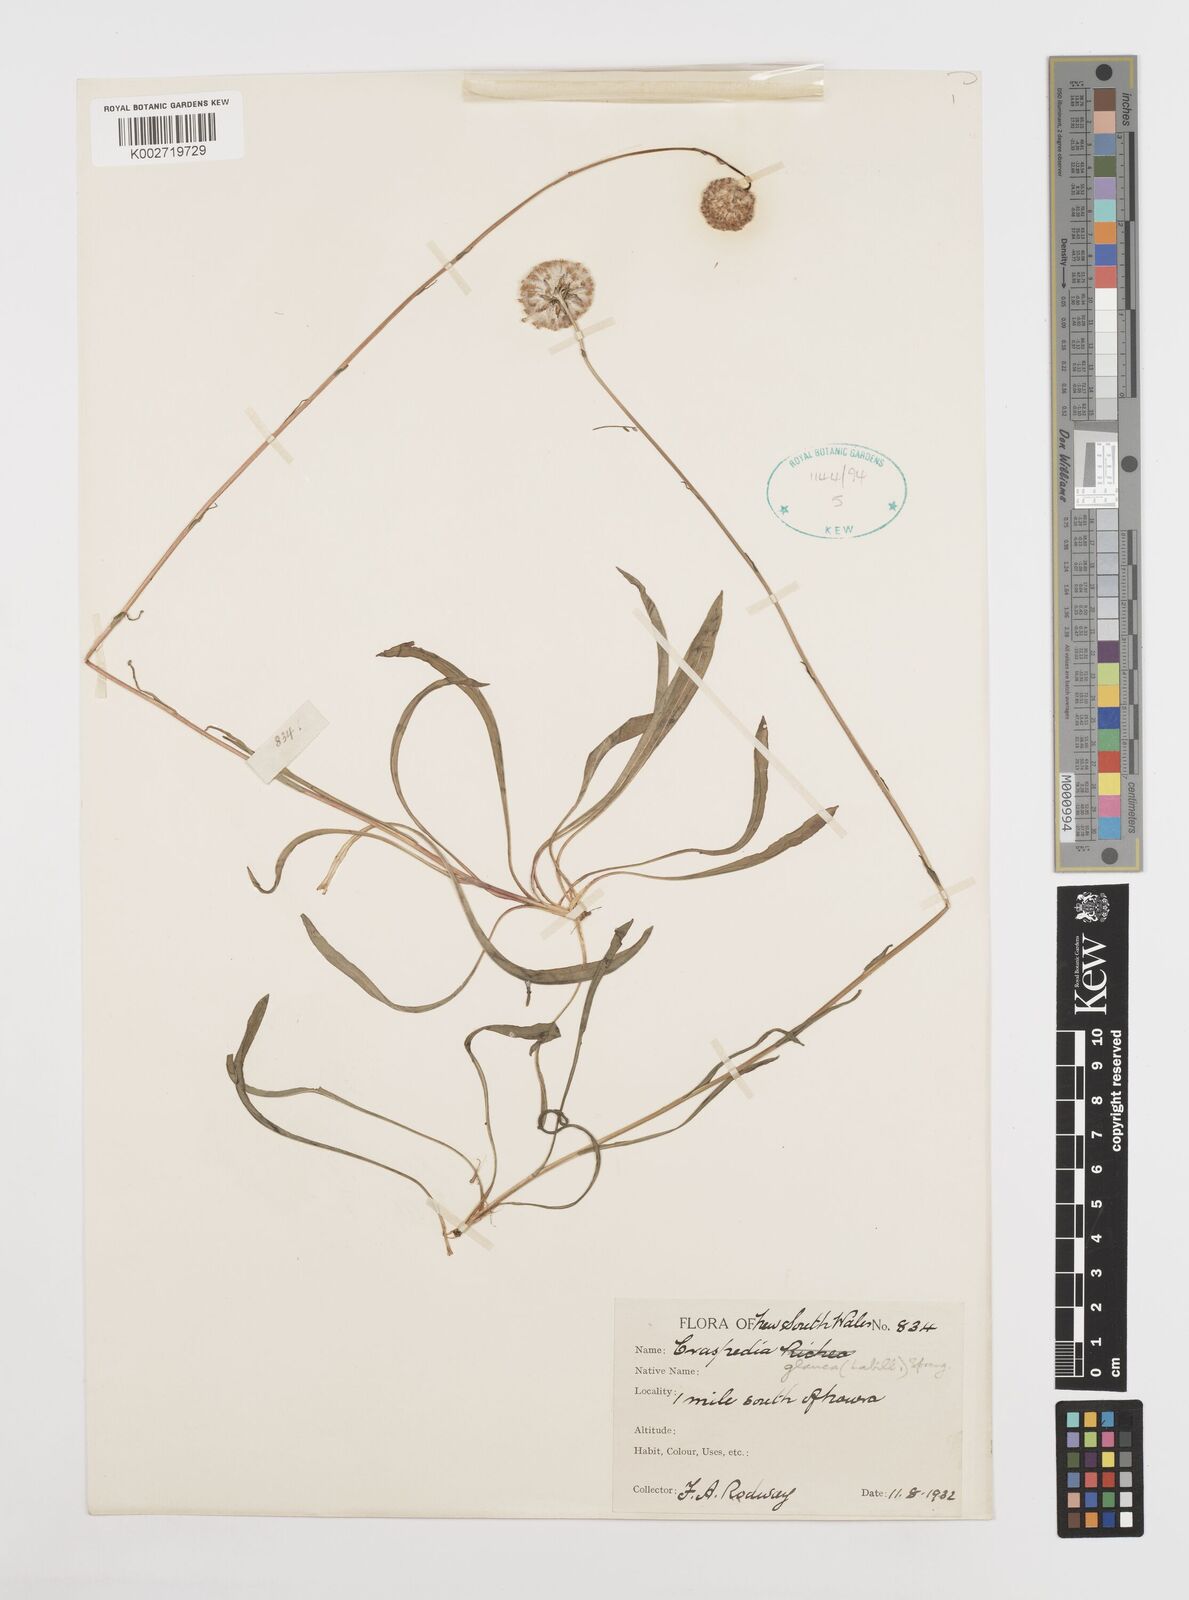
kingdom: Plantae
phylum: Tracheophyta
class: Magnoliopsida
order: Asterales
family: Asteraceae
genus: Craspedia
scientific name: Craspedia glauca
